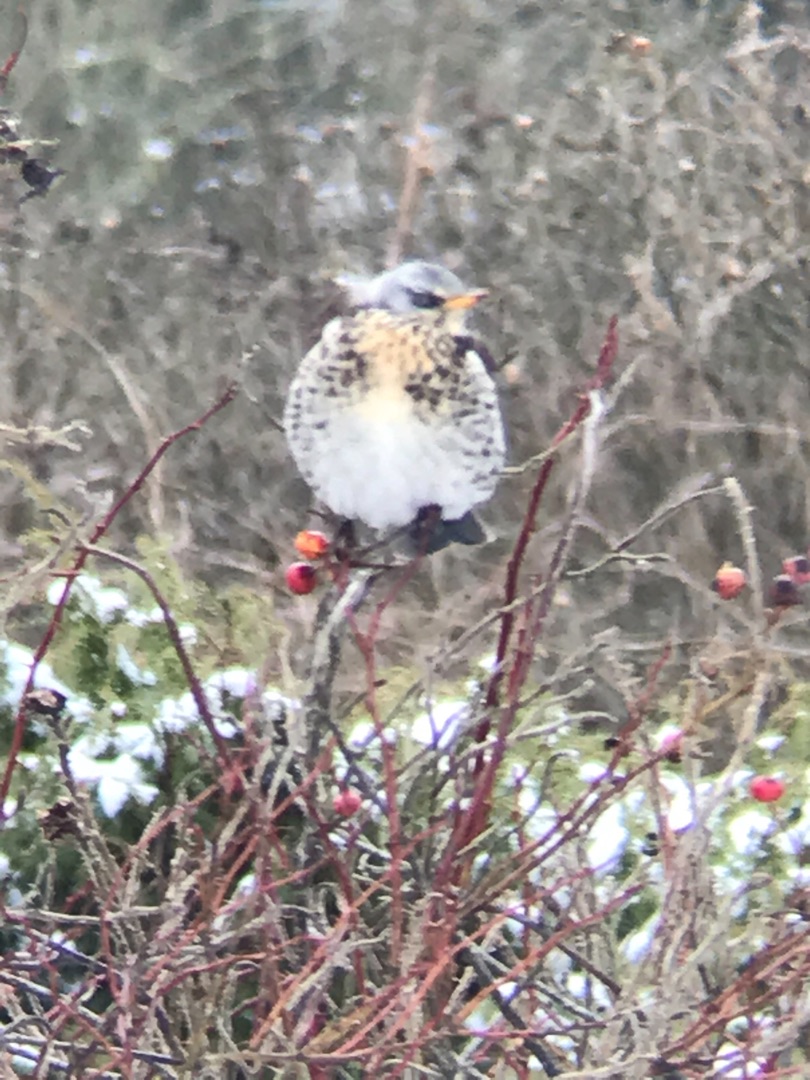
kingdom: Animalia
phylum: Chordata
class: Aves
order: Passeriformes
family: Turdidae
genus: Turdus
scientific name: Turdus pilaris
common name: Sjagger
